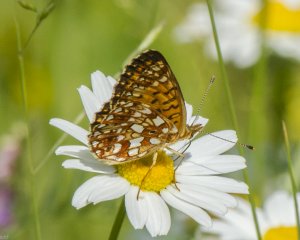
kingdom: Animalia
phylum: Arthropoda
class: Insecta
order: Lepidoptera
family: Nymphalidae
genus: Boloria
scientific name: Boloria selene
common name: Silver-bordered Fritillary
